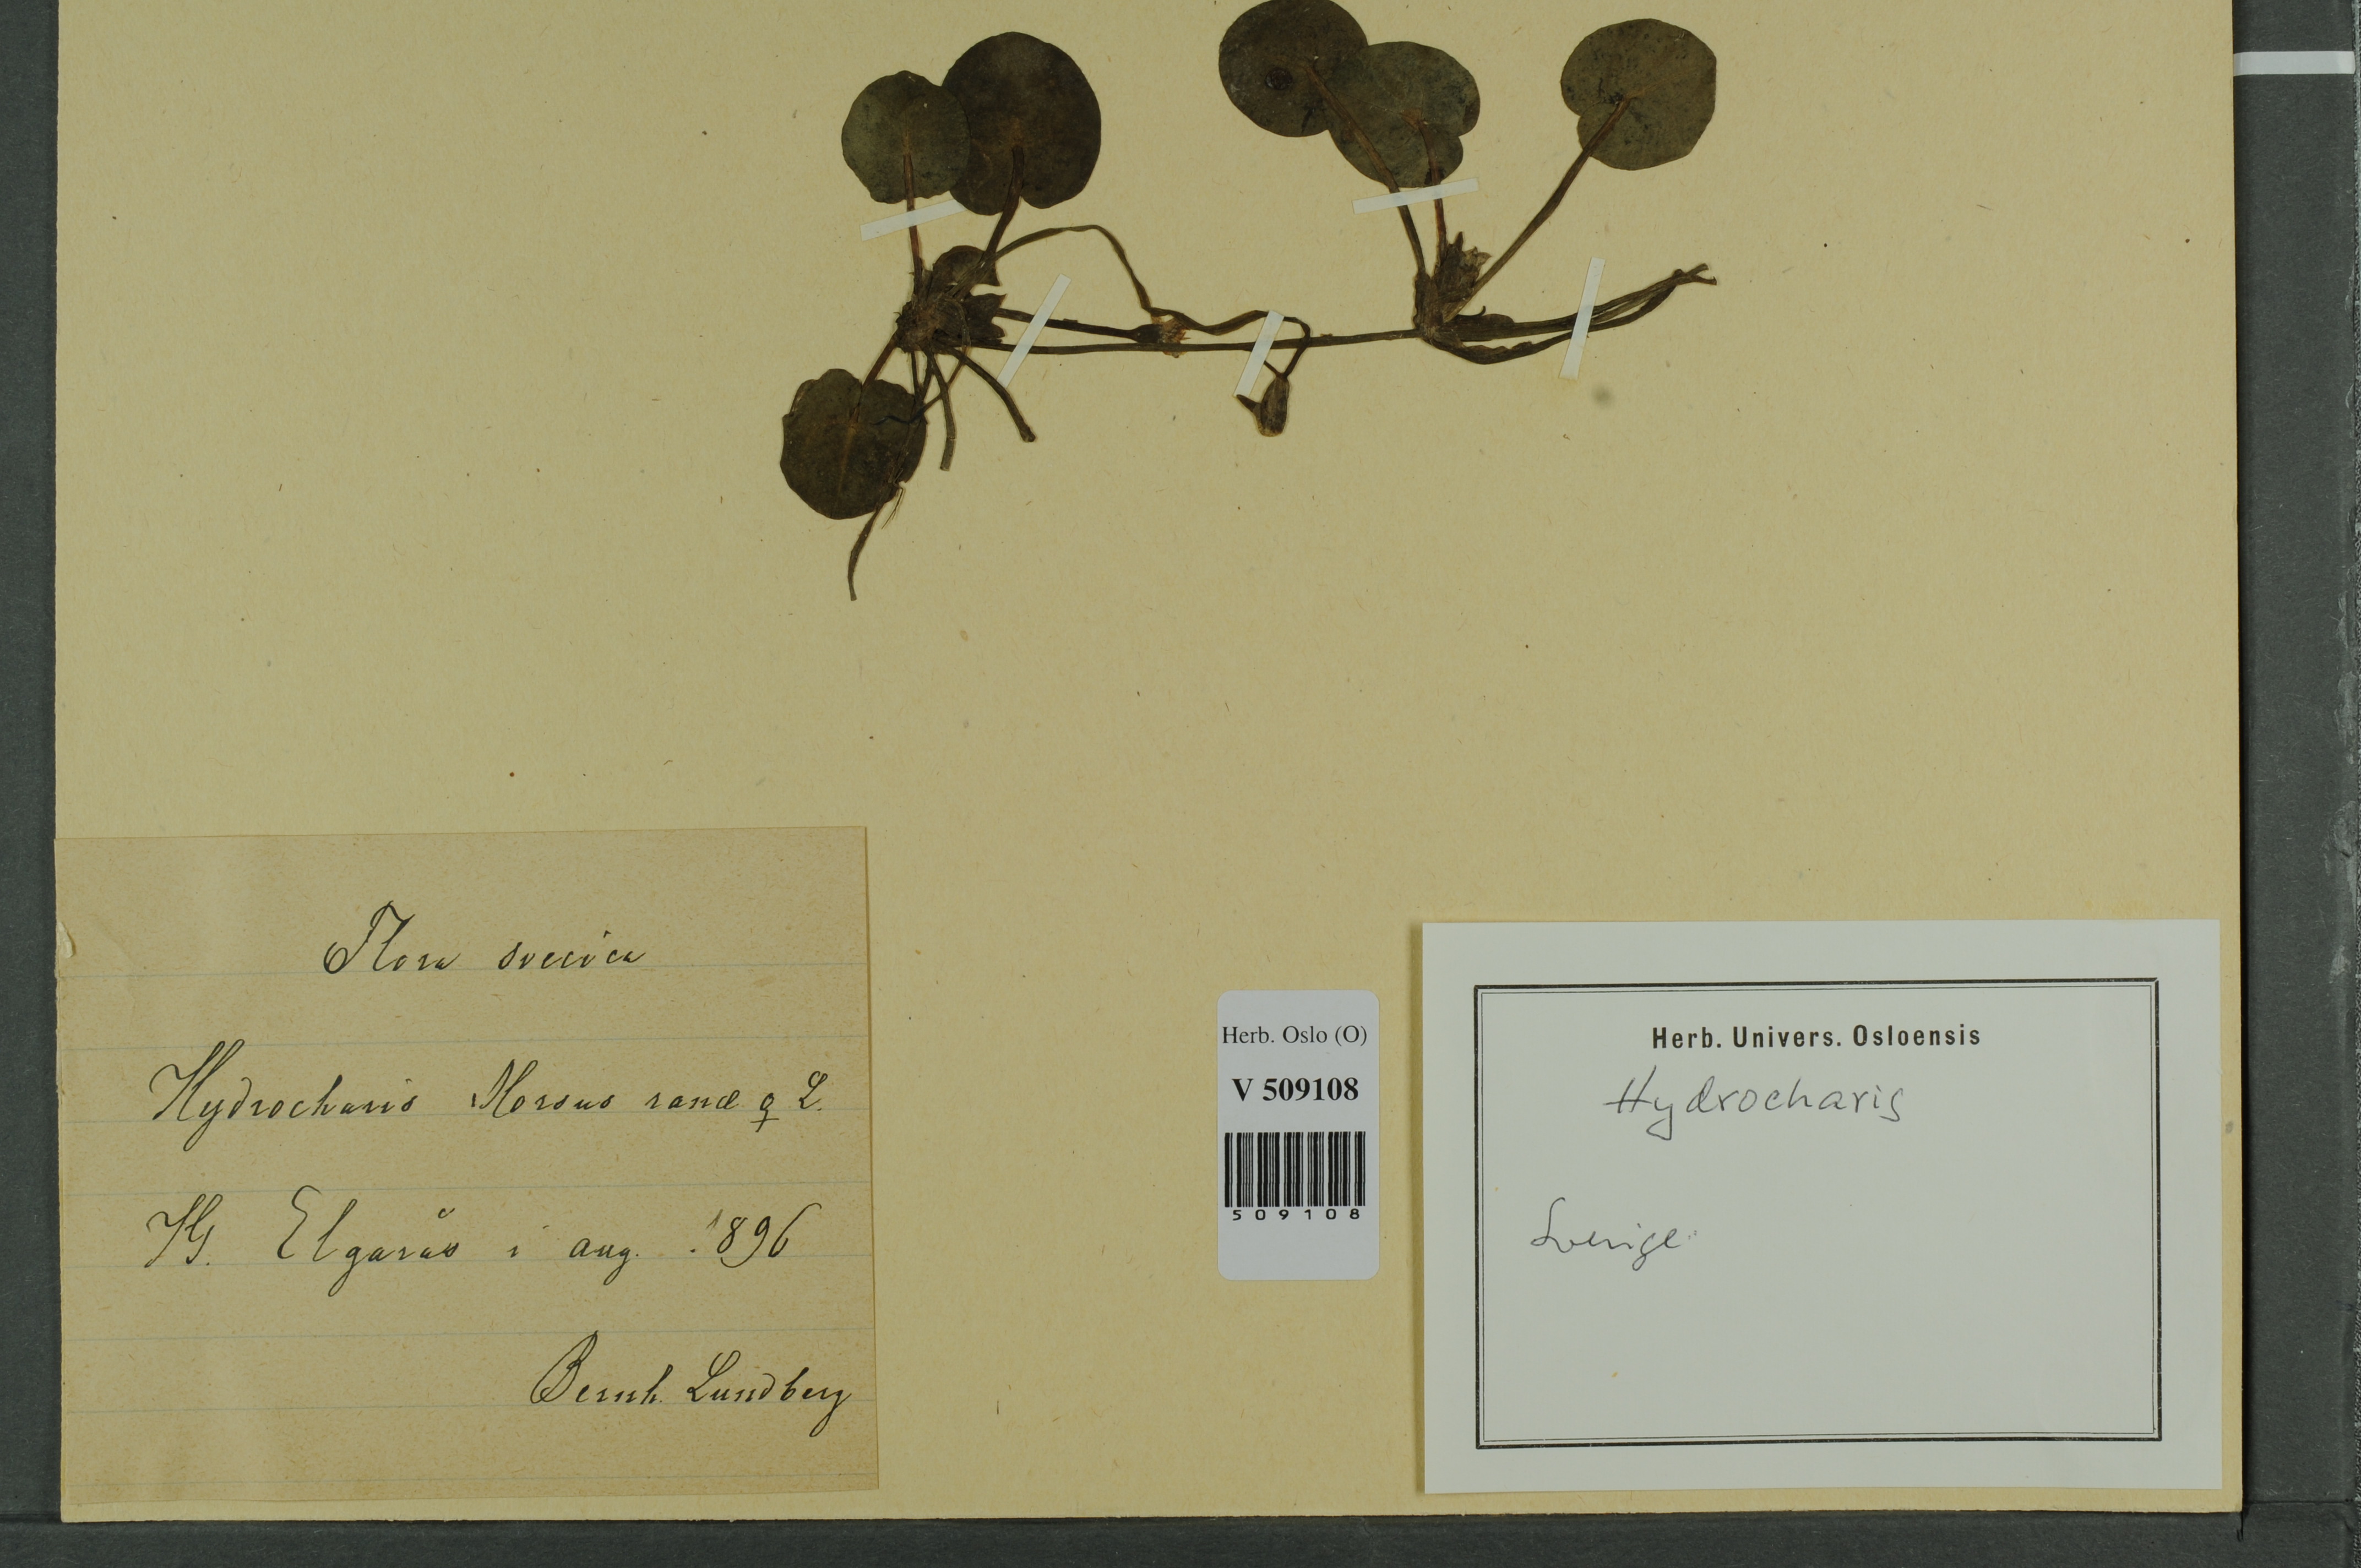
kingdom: Plantae
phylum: Tracheophyta
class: Liliopsida
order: Alismatales
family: Hydrocharitaceae
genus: Hydrocharis
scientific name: Hydrocharis morsus-ranae
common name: Frogbit
